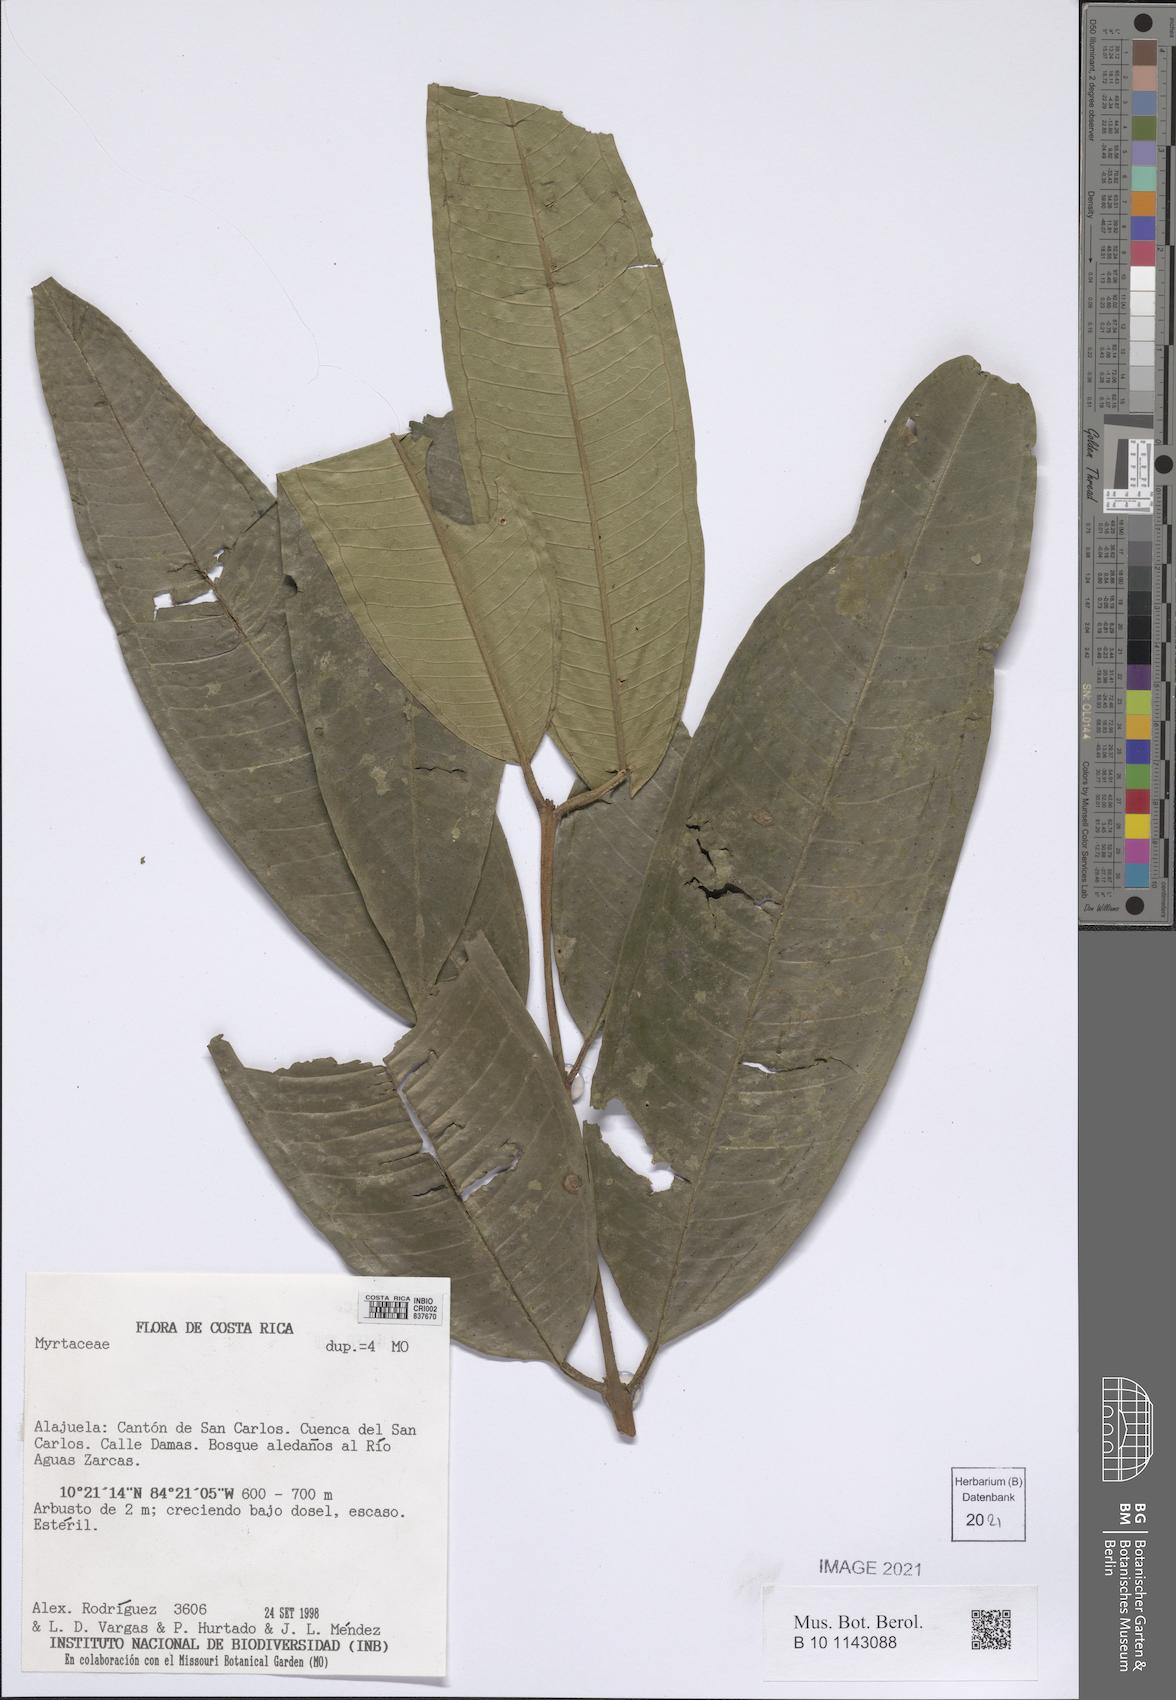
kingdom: Plantae
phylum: Tracheophyta
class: Magnoliopsida
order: Myrtales
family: Myrtaceae
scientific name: Myrtaceae
